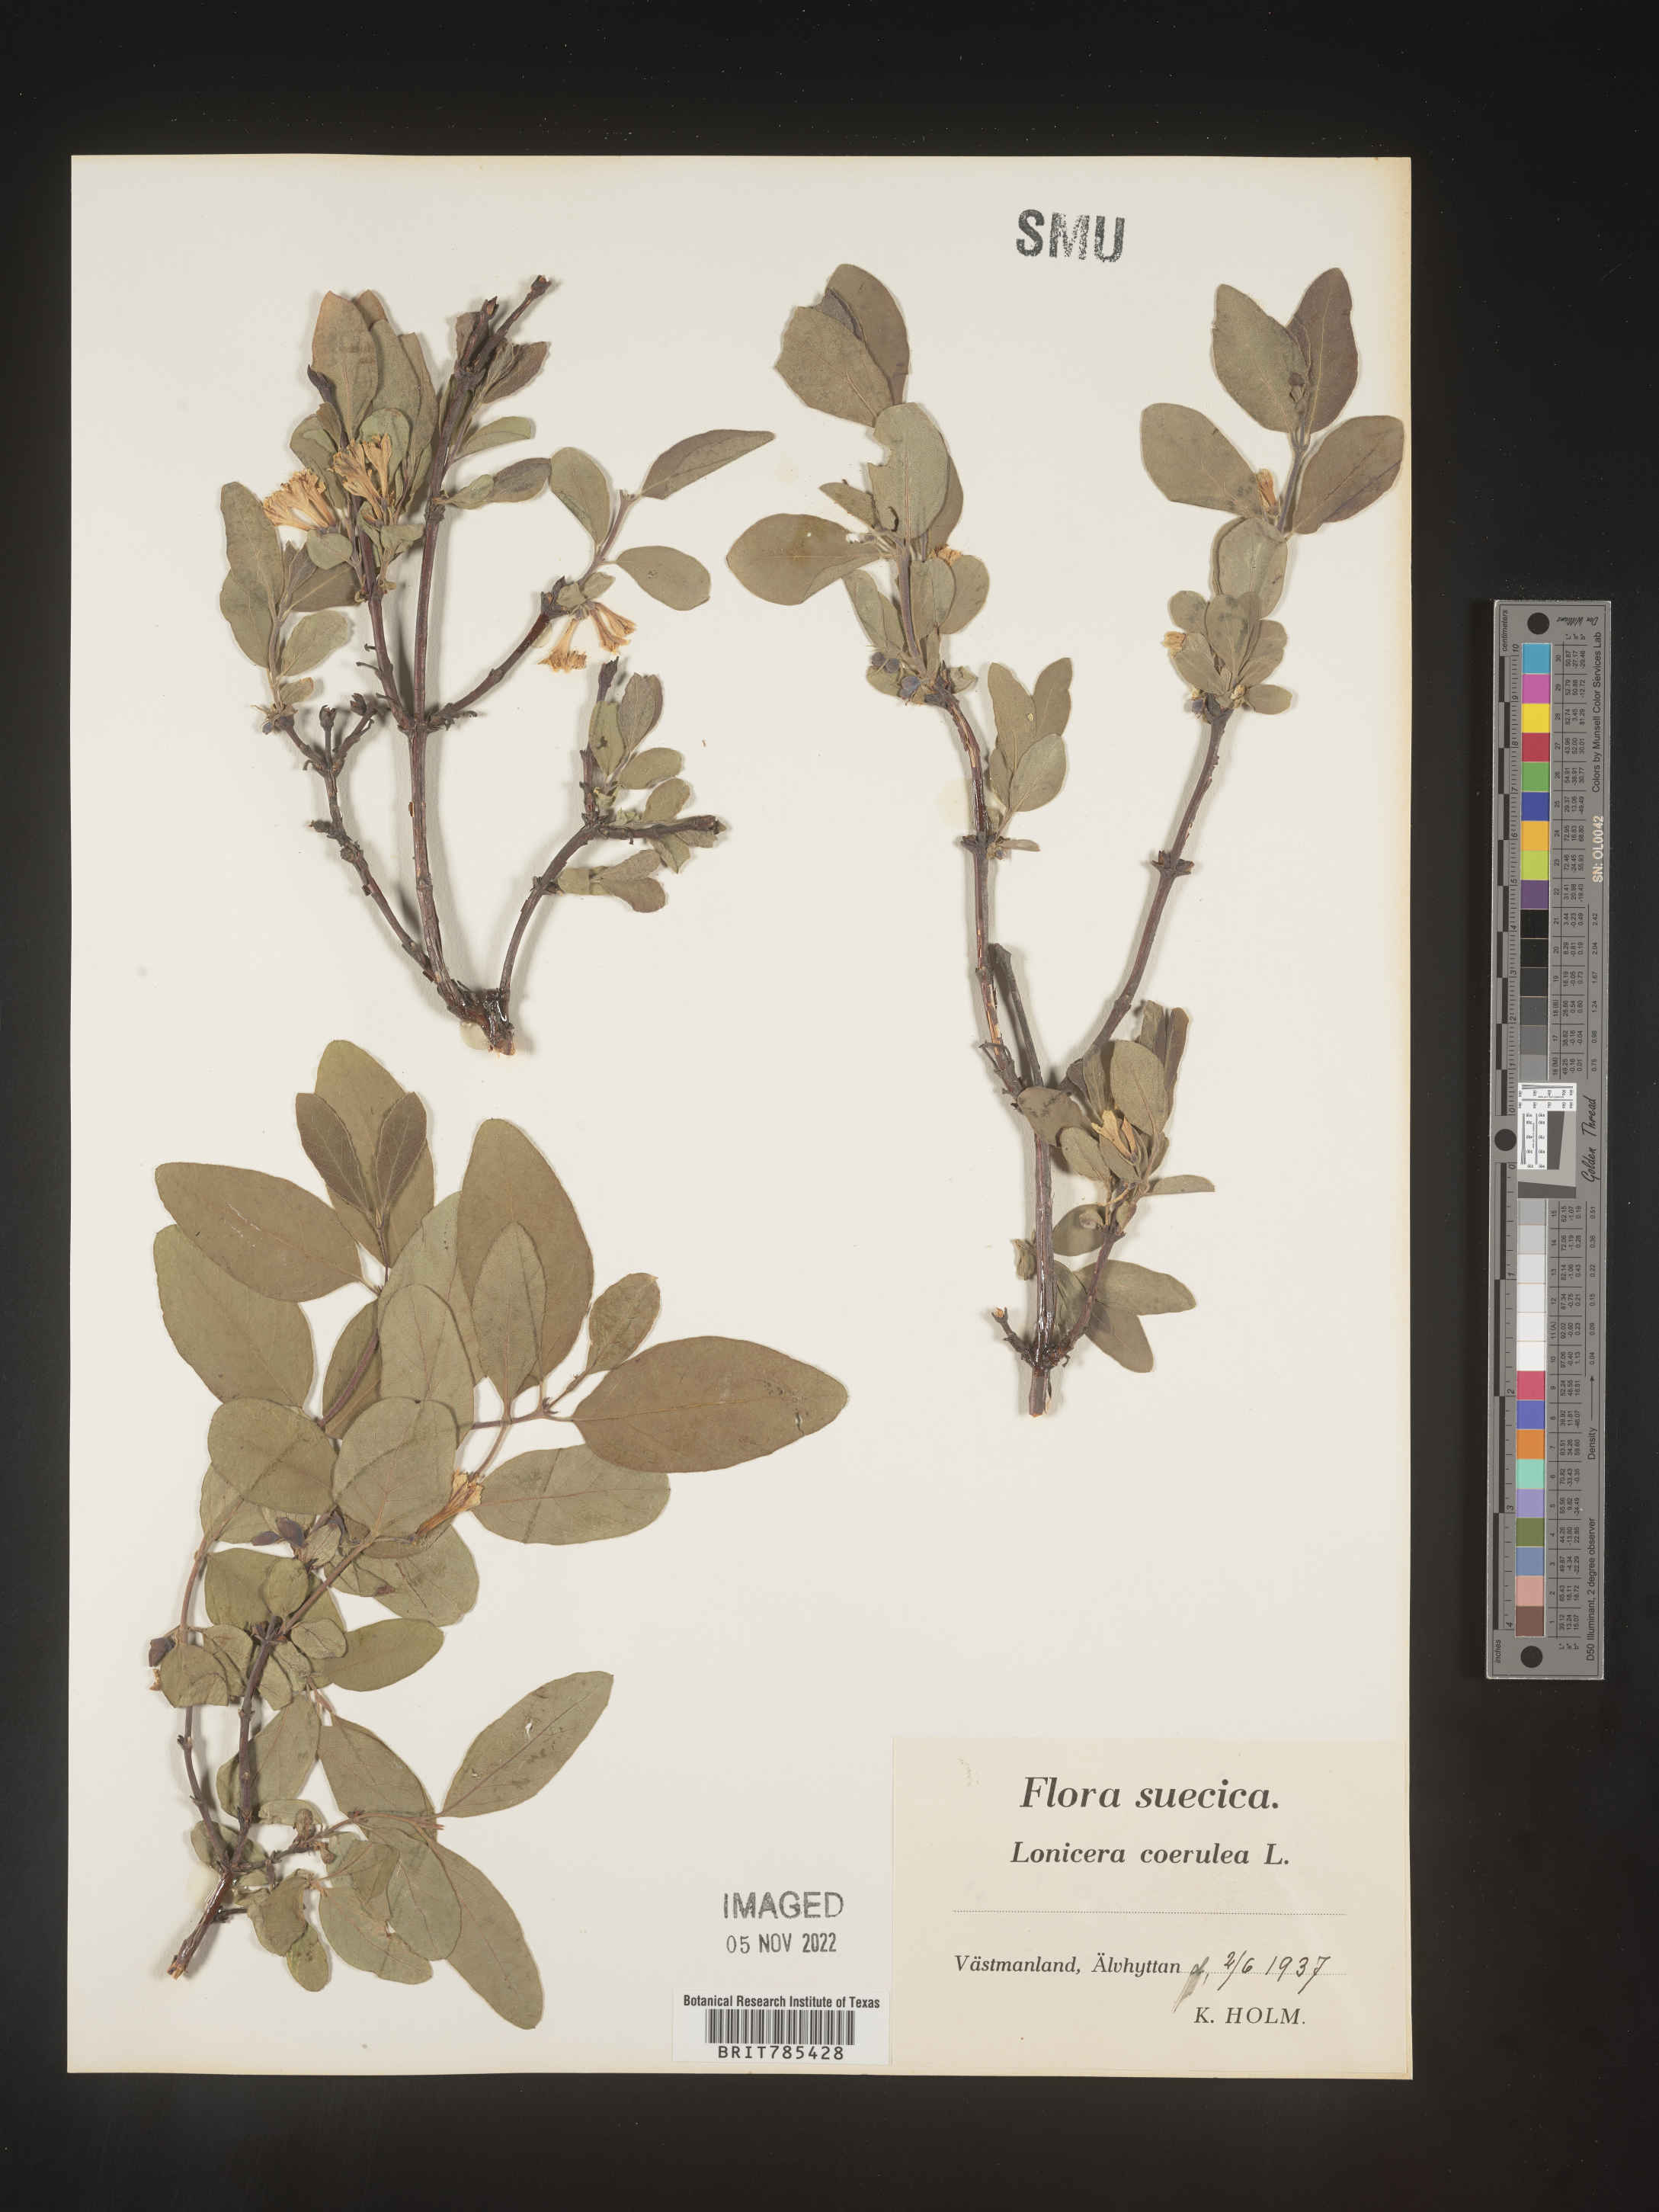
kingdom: Plantae
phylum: Tracheophyta
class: Magnoliopsida
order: Dipsacales
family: Caprifoliaceae
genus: Lonicera
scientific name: Lonicera
